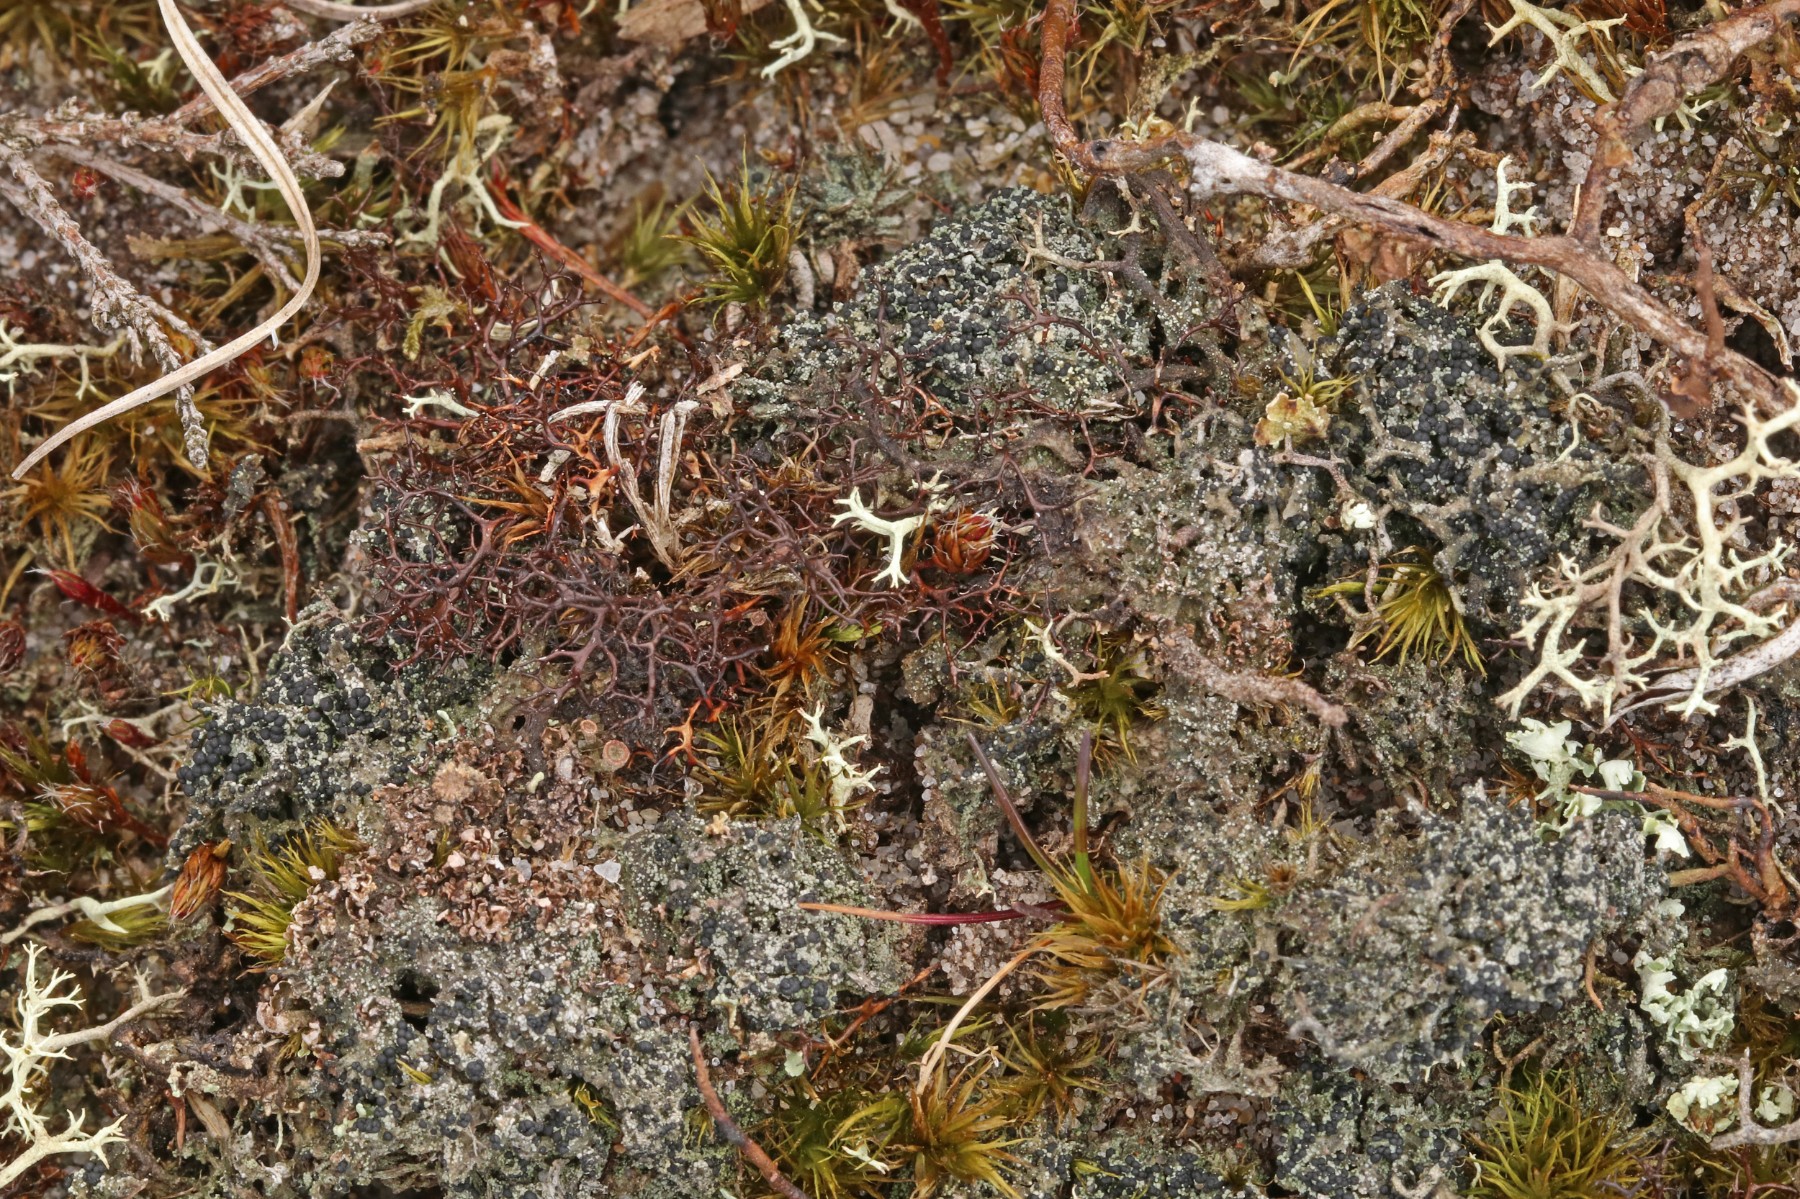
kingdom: Fungi
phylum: Ascomycota
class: Lecanoromycetes
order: Lecanorales
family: Byssolomataceae
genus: Micarea
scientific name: Micarea lignaria
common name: tørve-knaplav
